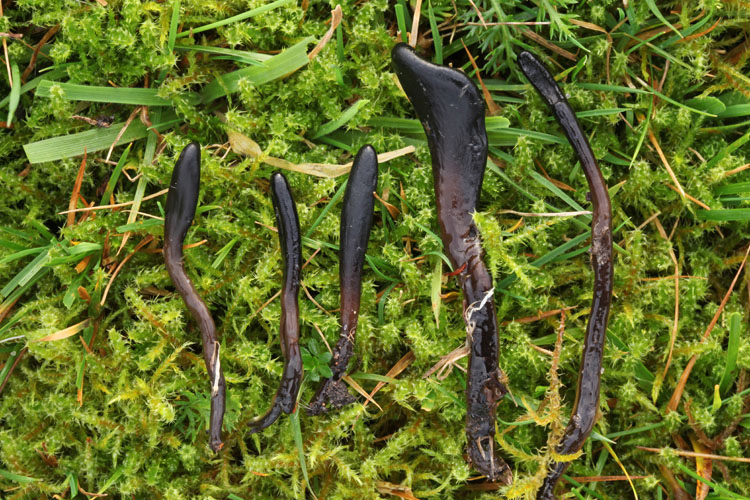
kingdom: Fungi
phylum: Ascomycota
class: Geoglossomycetes
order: Geoglossales
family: Geoglossaceae
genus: Glutinoglossum
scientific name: Glutinoglossum glutinosum
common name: slimet jordtunge
